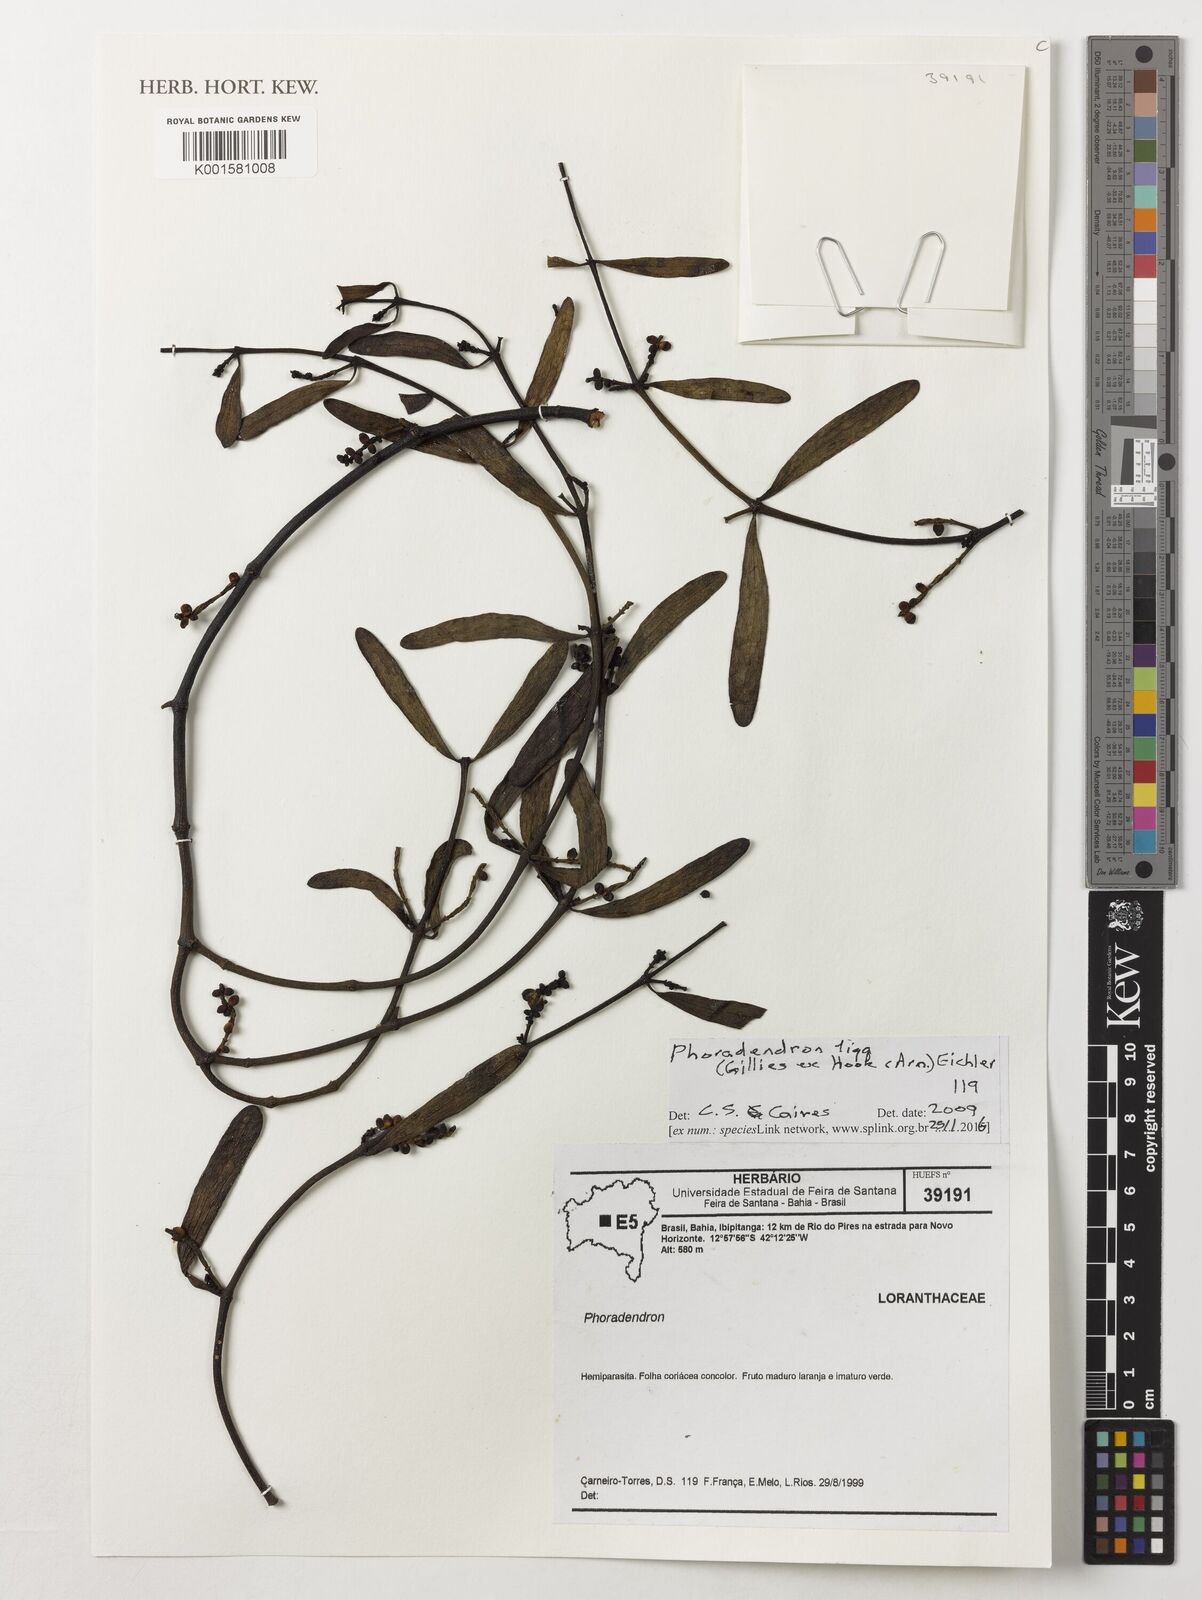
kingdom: Plantae
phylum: Tracheophyta
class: Magnoliopsida
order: Santalales
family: Viscaceae
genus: Phoradendron
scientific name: Phoradendron liga
